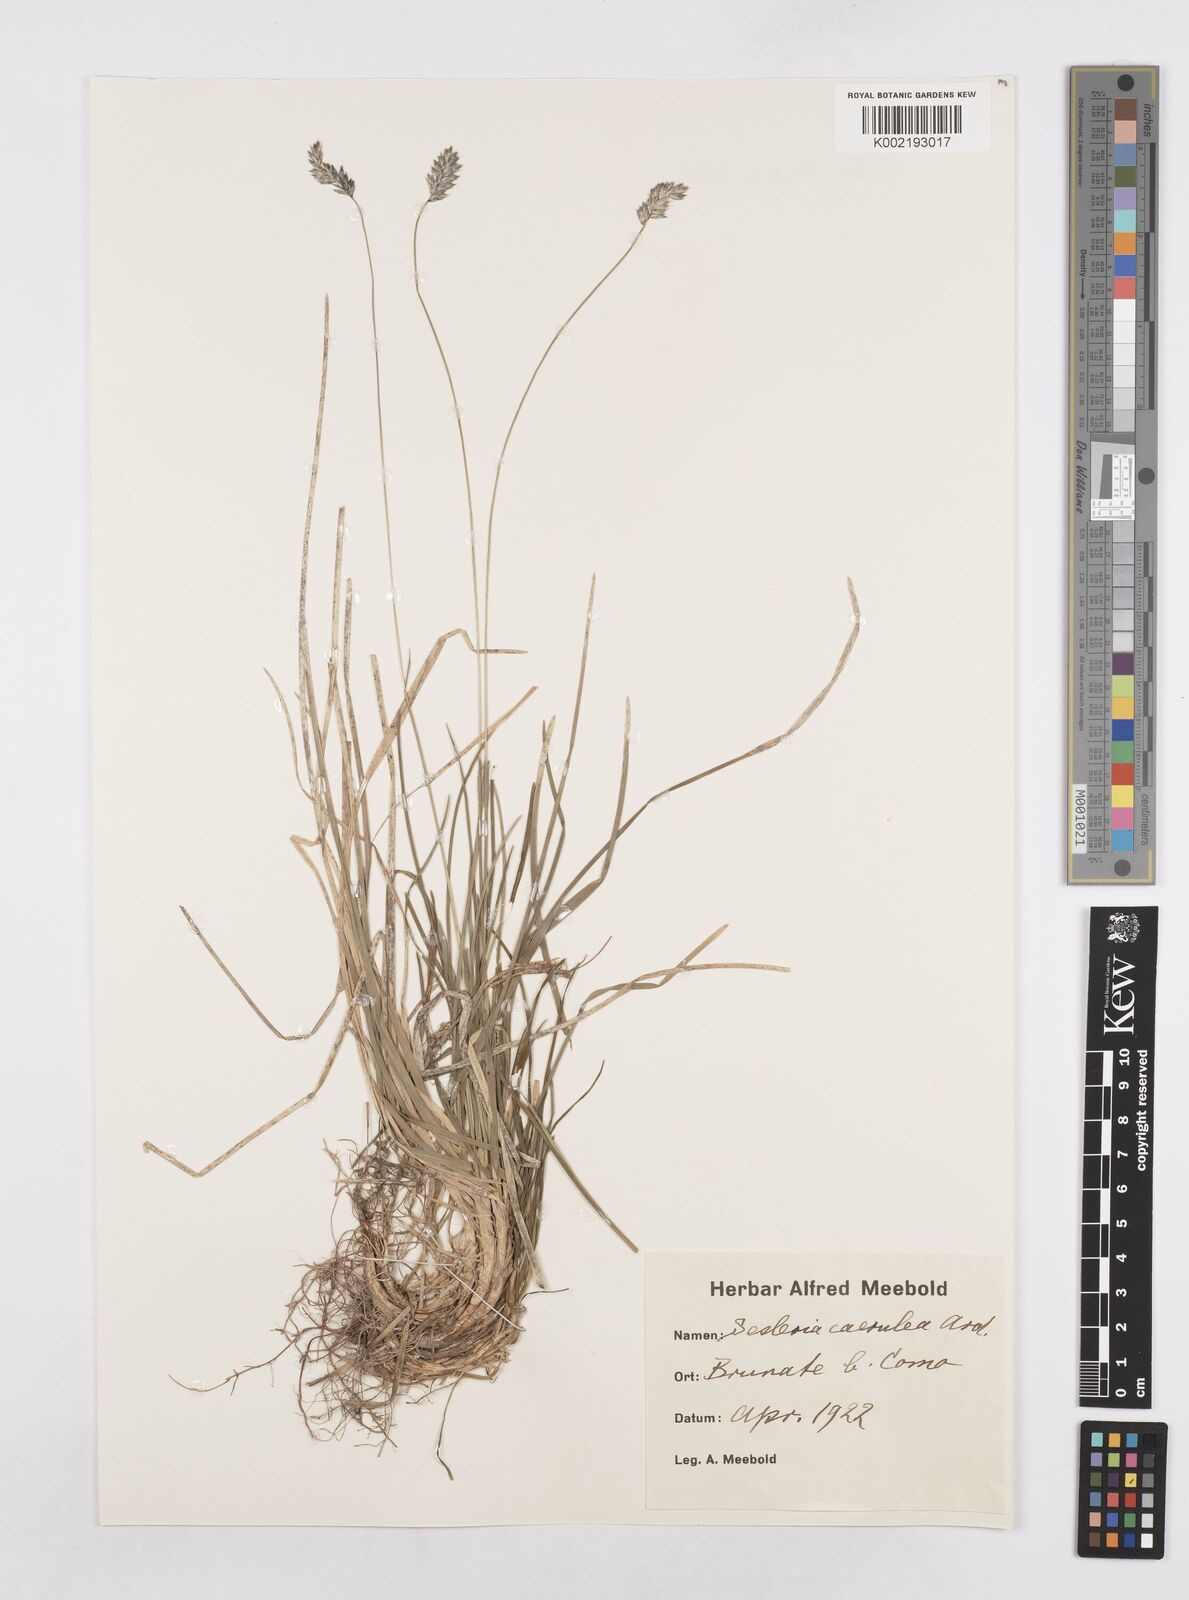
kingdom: Plantae
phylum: Tracheophyta
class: Liliopsida
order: Poales
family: Poaceae
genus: Sesleria
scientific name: Sesleria caerulea
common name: Blue moor-grass
